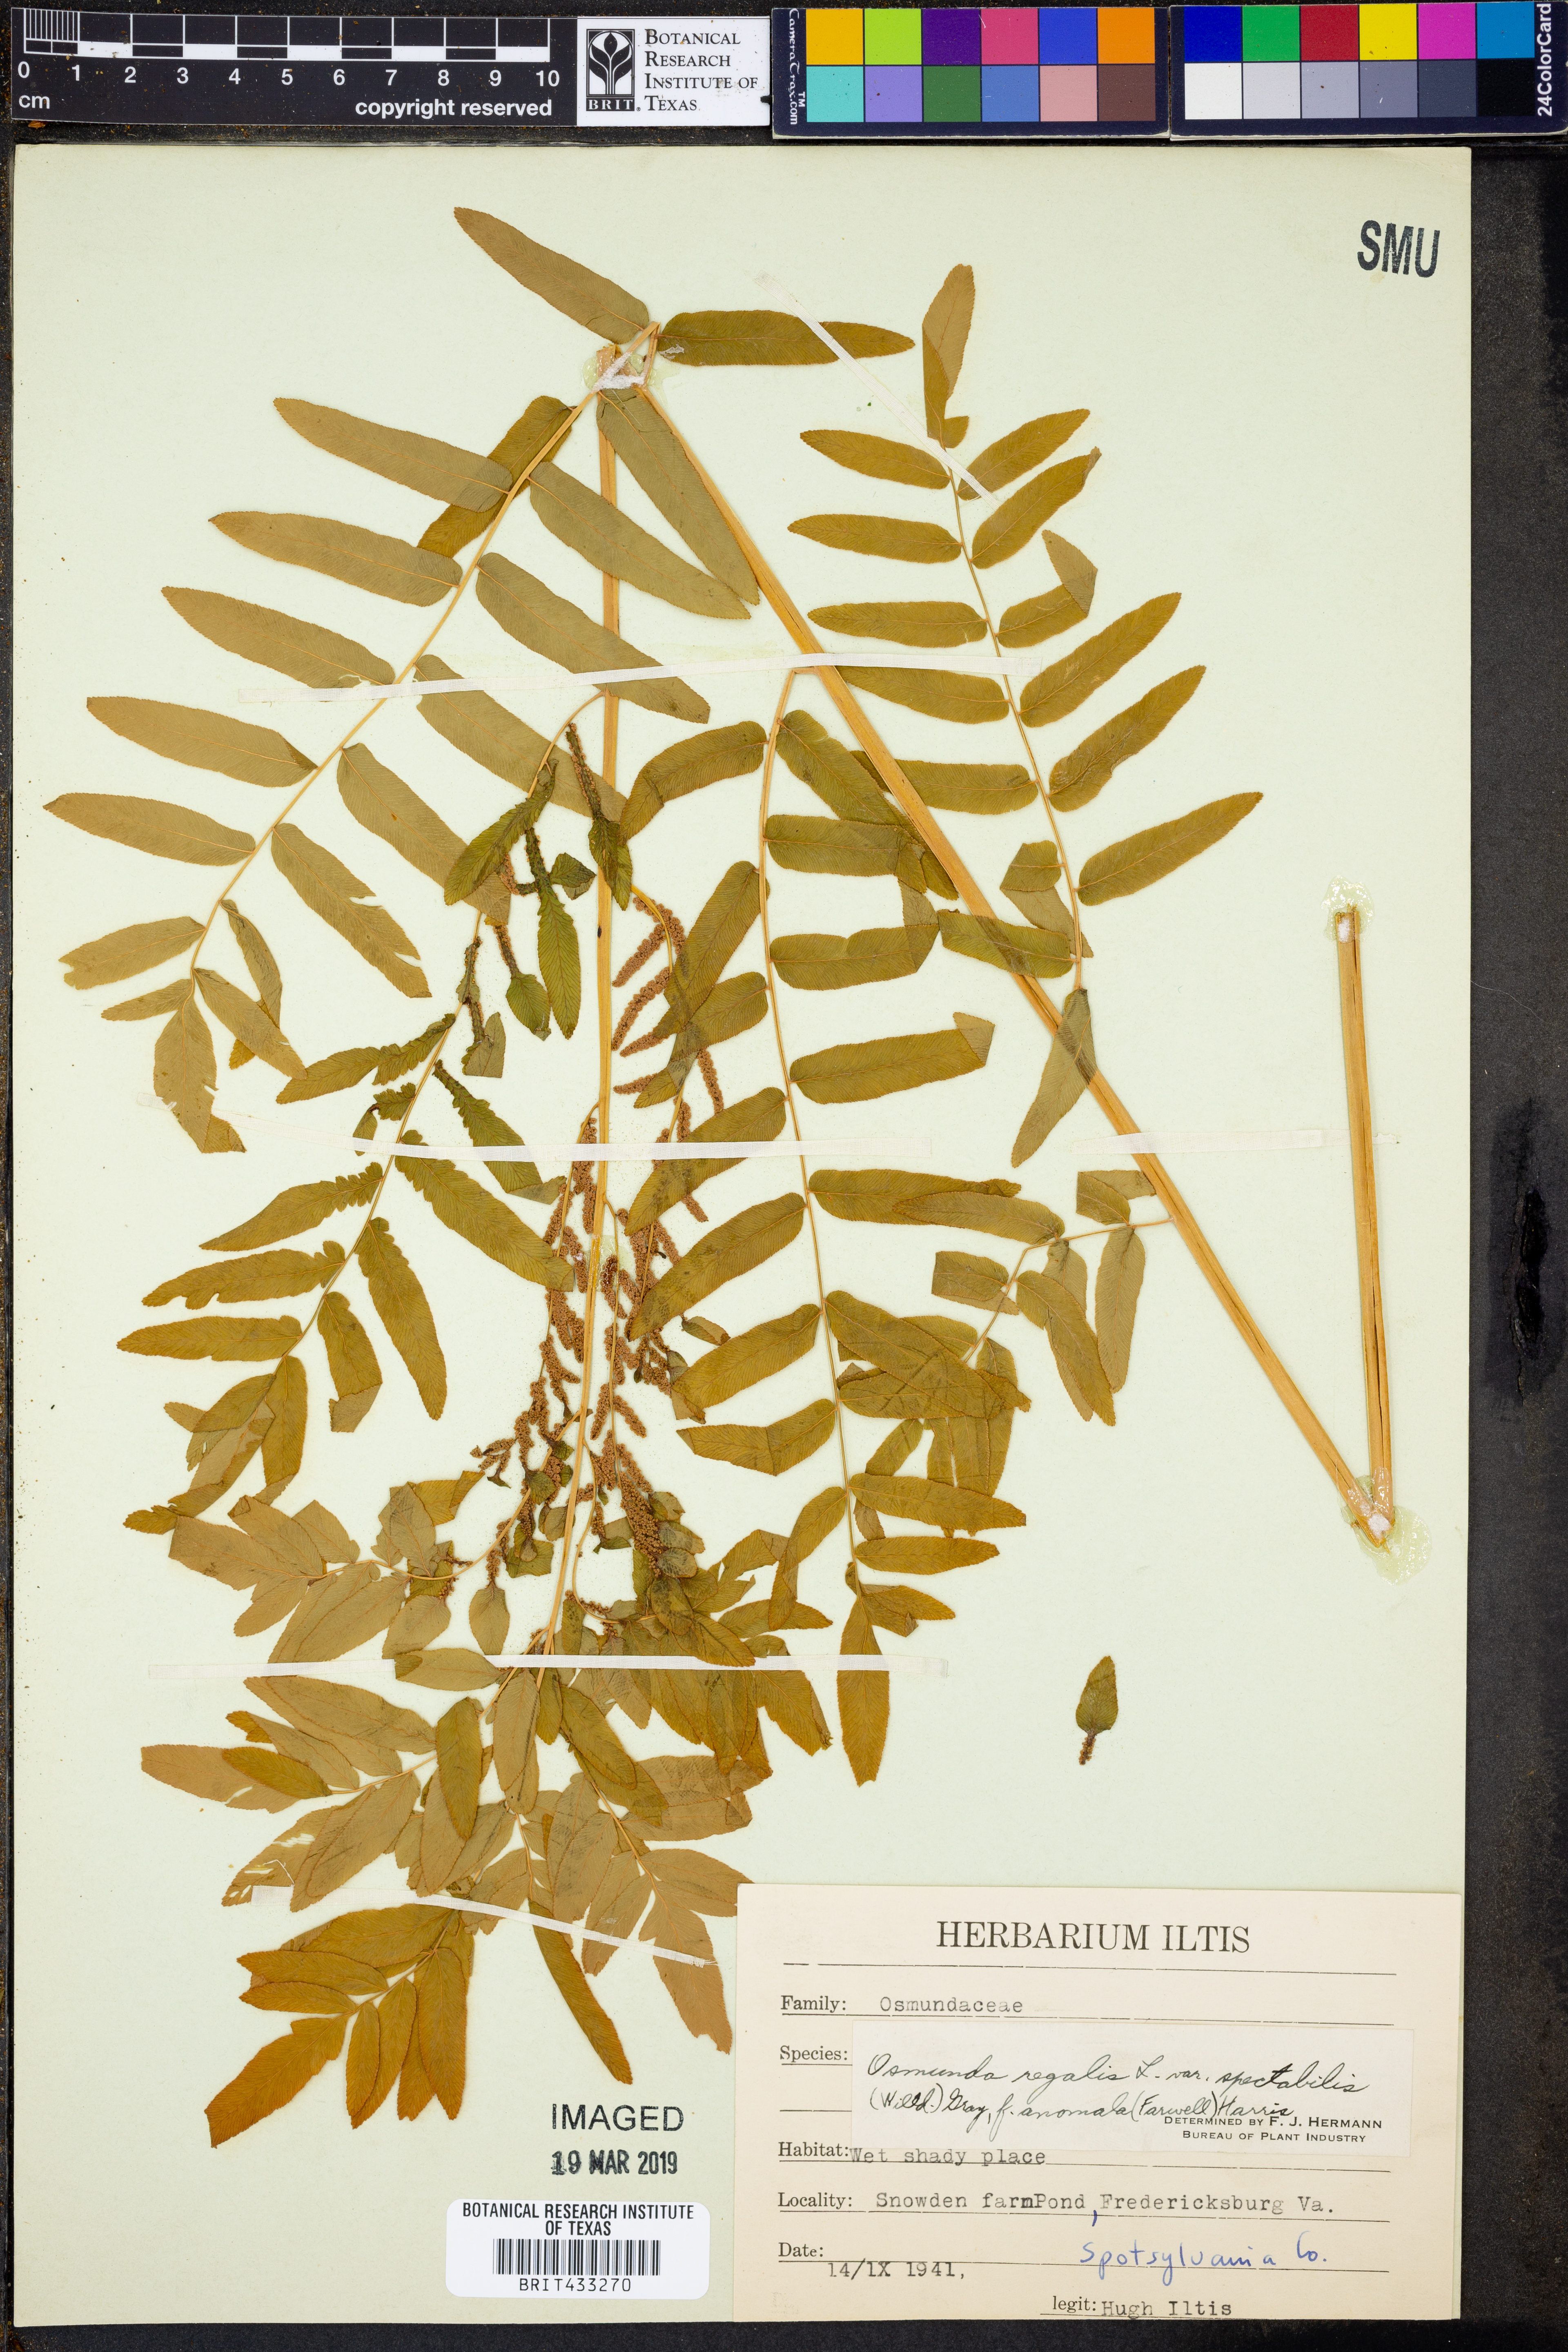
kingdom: Plantae
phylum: Tracheophyta
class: Polypodiopsida
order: Osmundales
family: Osmundaceae
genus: Osmunda
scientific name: Osmunda spectabilis
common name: American royal fern
